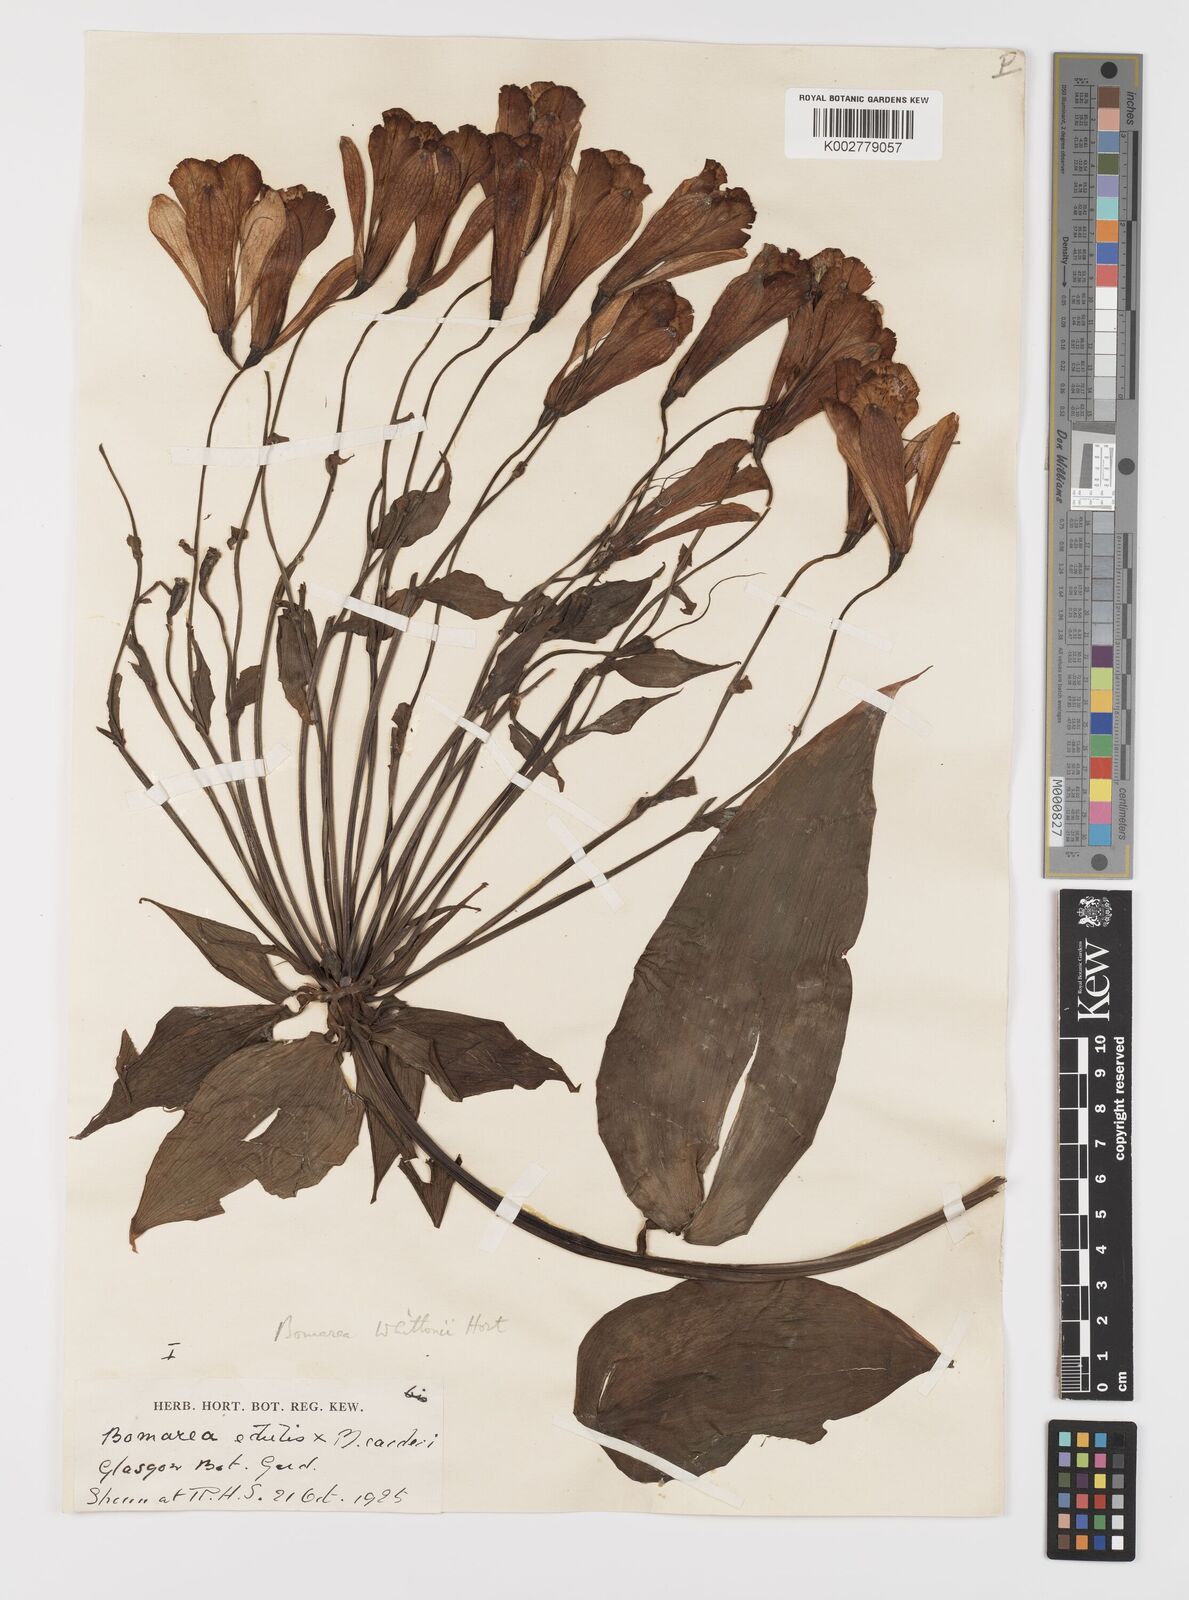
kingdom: Plantae
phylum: Tracheophyta
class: Liliopsida
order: Liliales
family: Alstroemeriaceae
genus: Bomarea
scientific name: Bomarea
